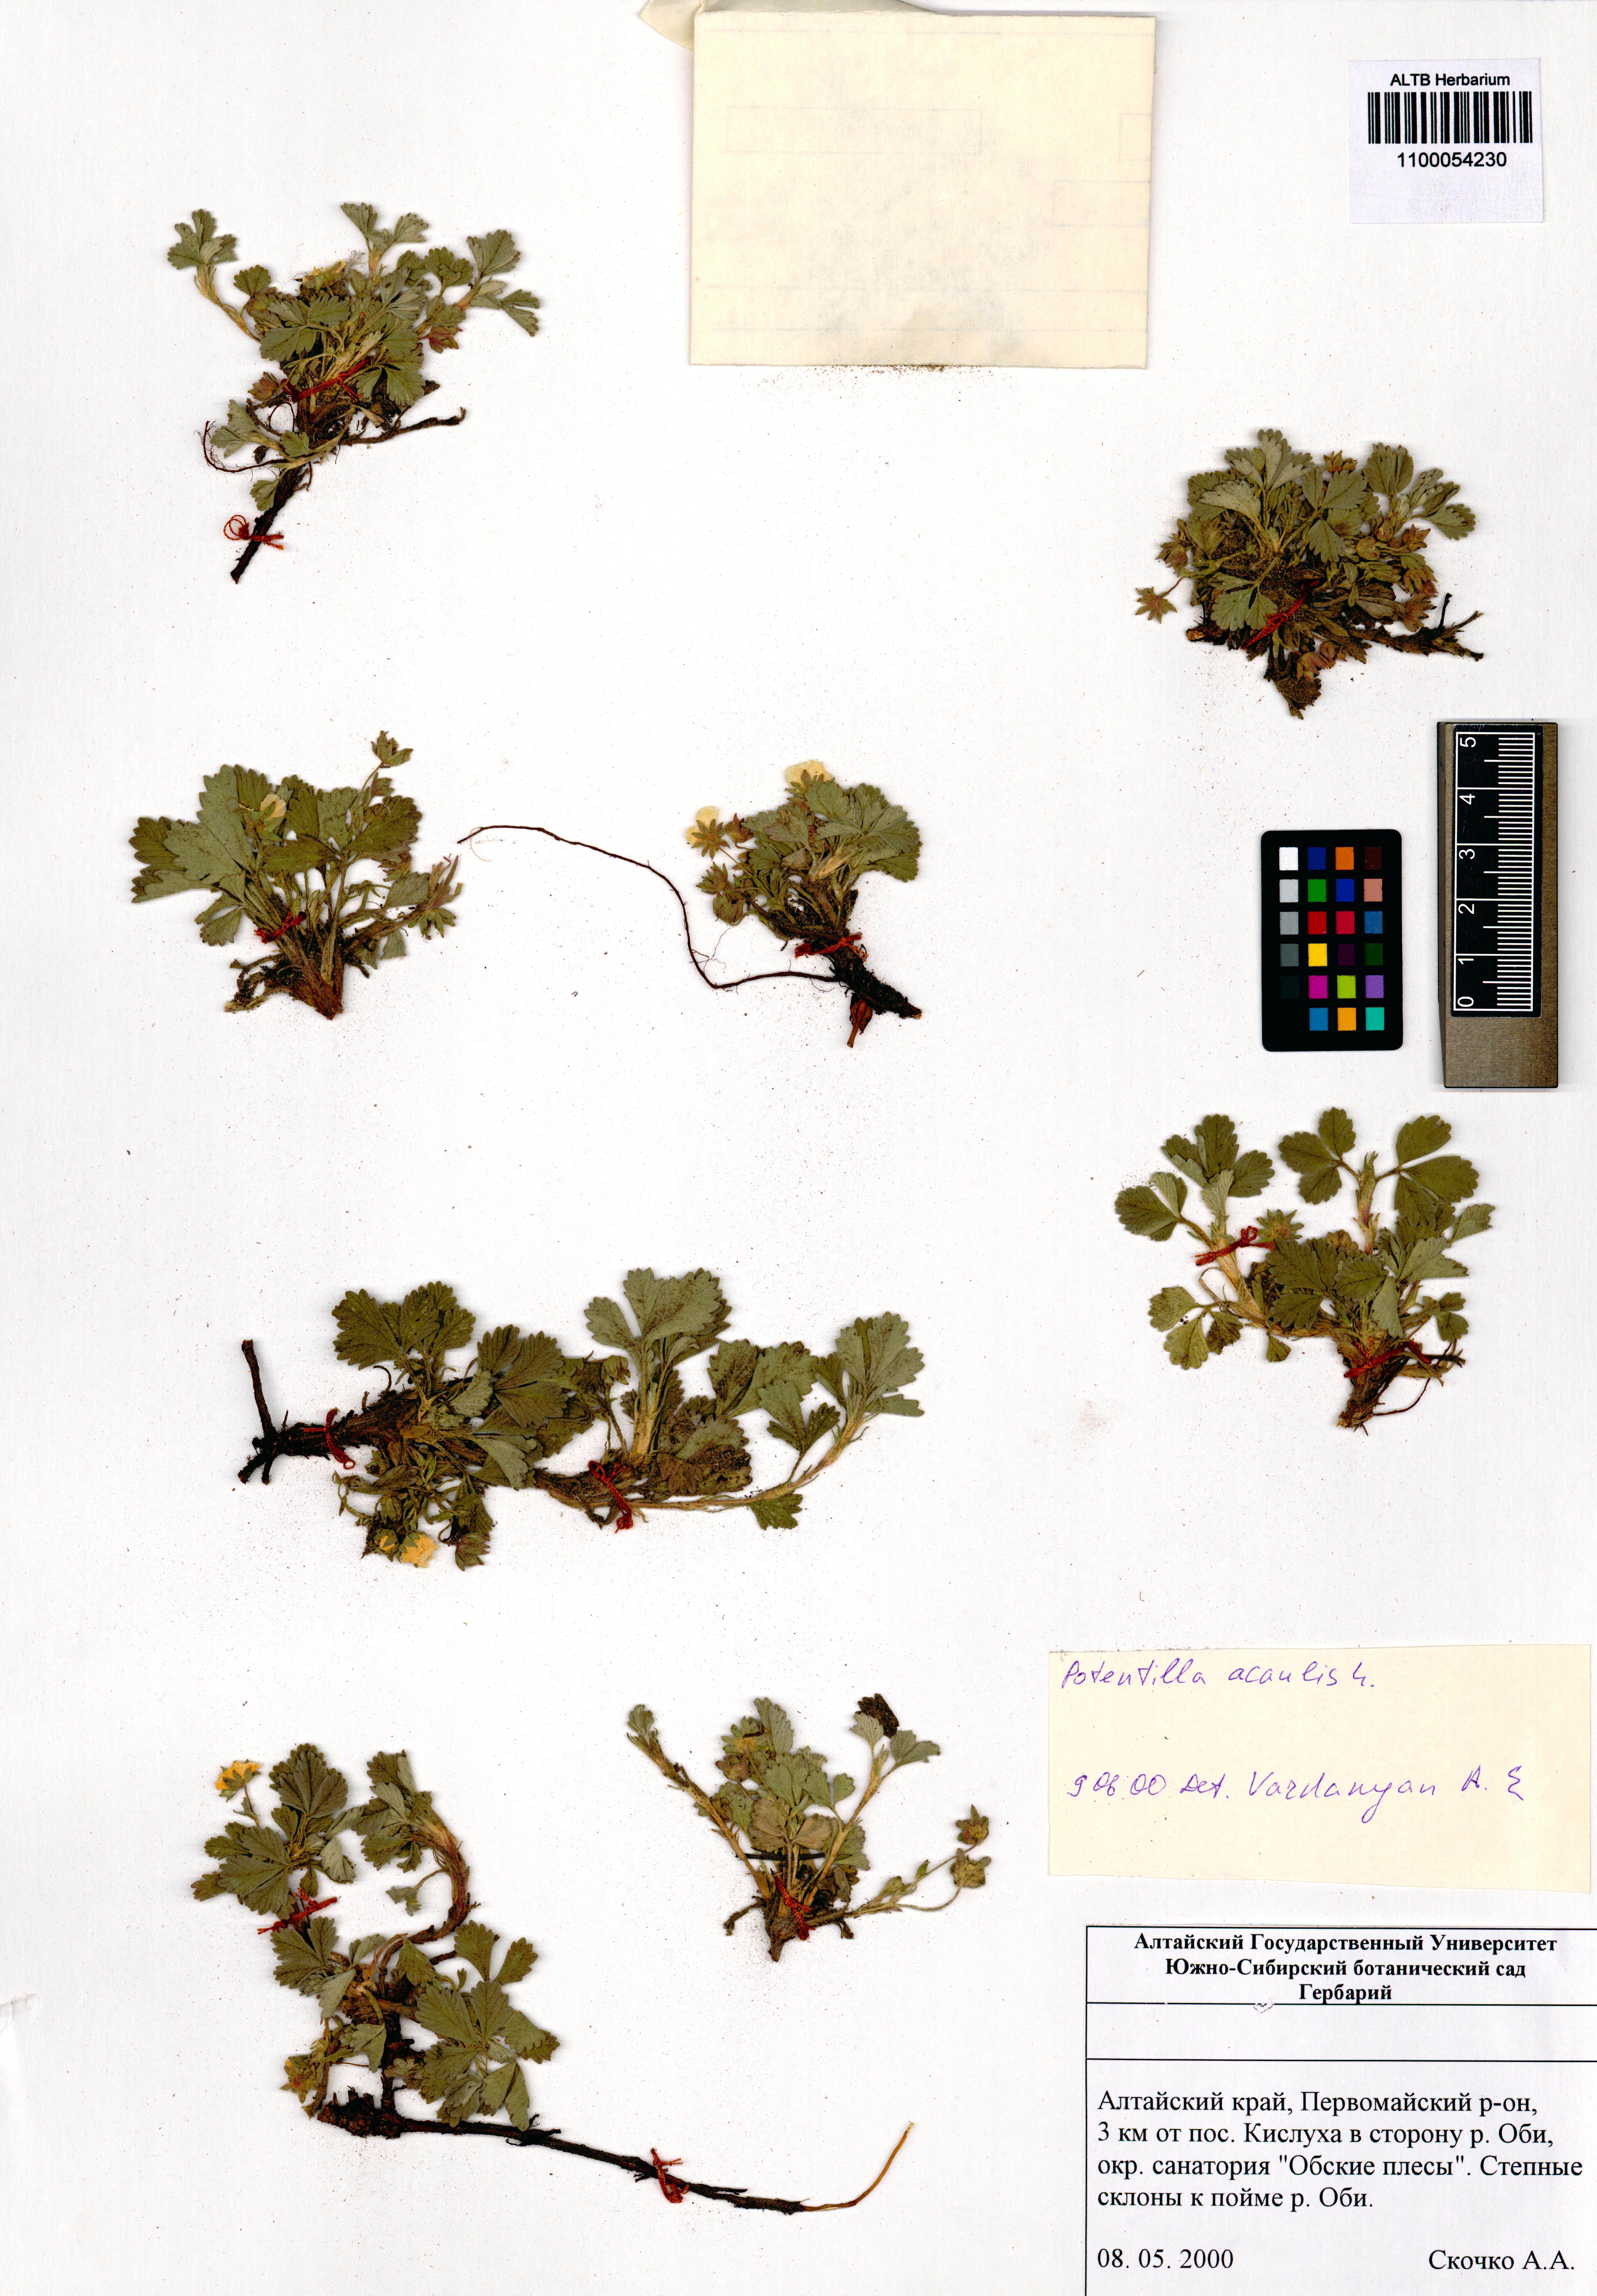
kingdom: Plantae
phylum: Tracheophyta
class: Magnoliopsida
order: Rosales
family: Rosaceae
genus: Potentilla
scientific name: Potentilla acaulis
